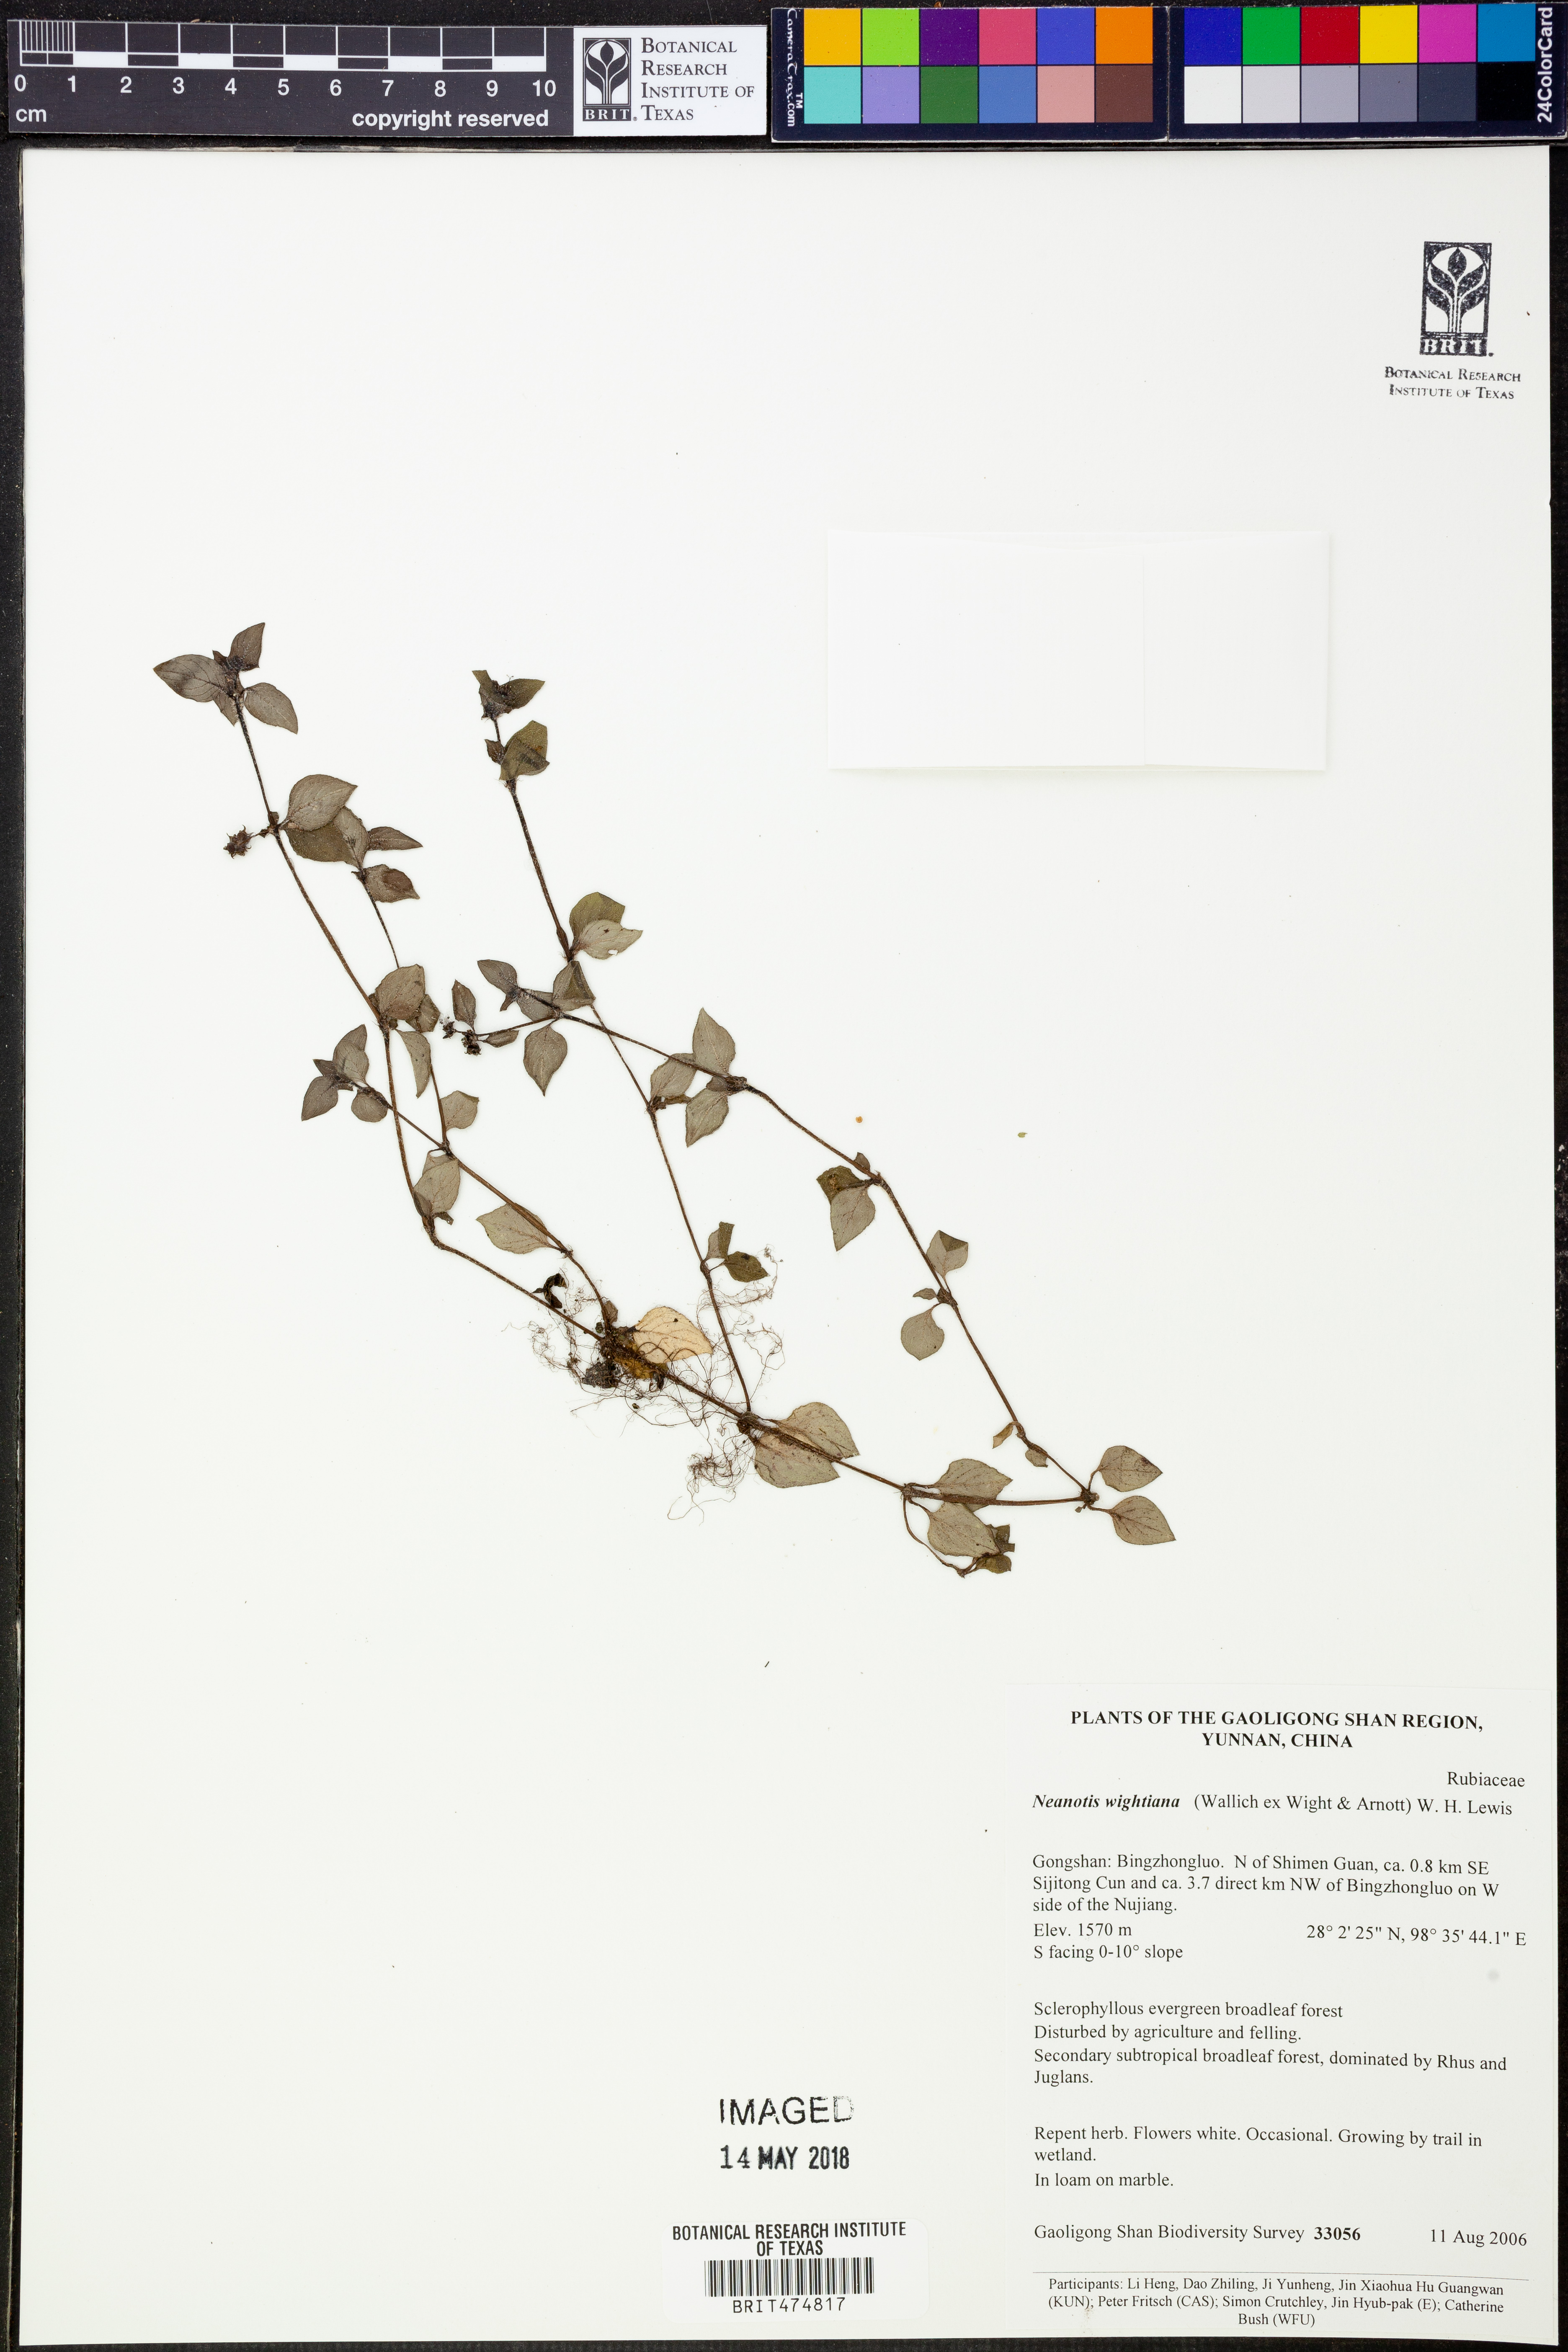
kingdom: Plantae
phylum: Tracheophyta
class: Magnoliopsida
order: Gentianales
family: Rubiaceae
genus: Neanotis
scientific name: Neanotis wightiana
